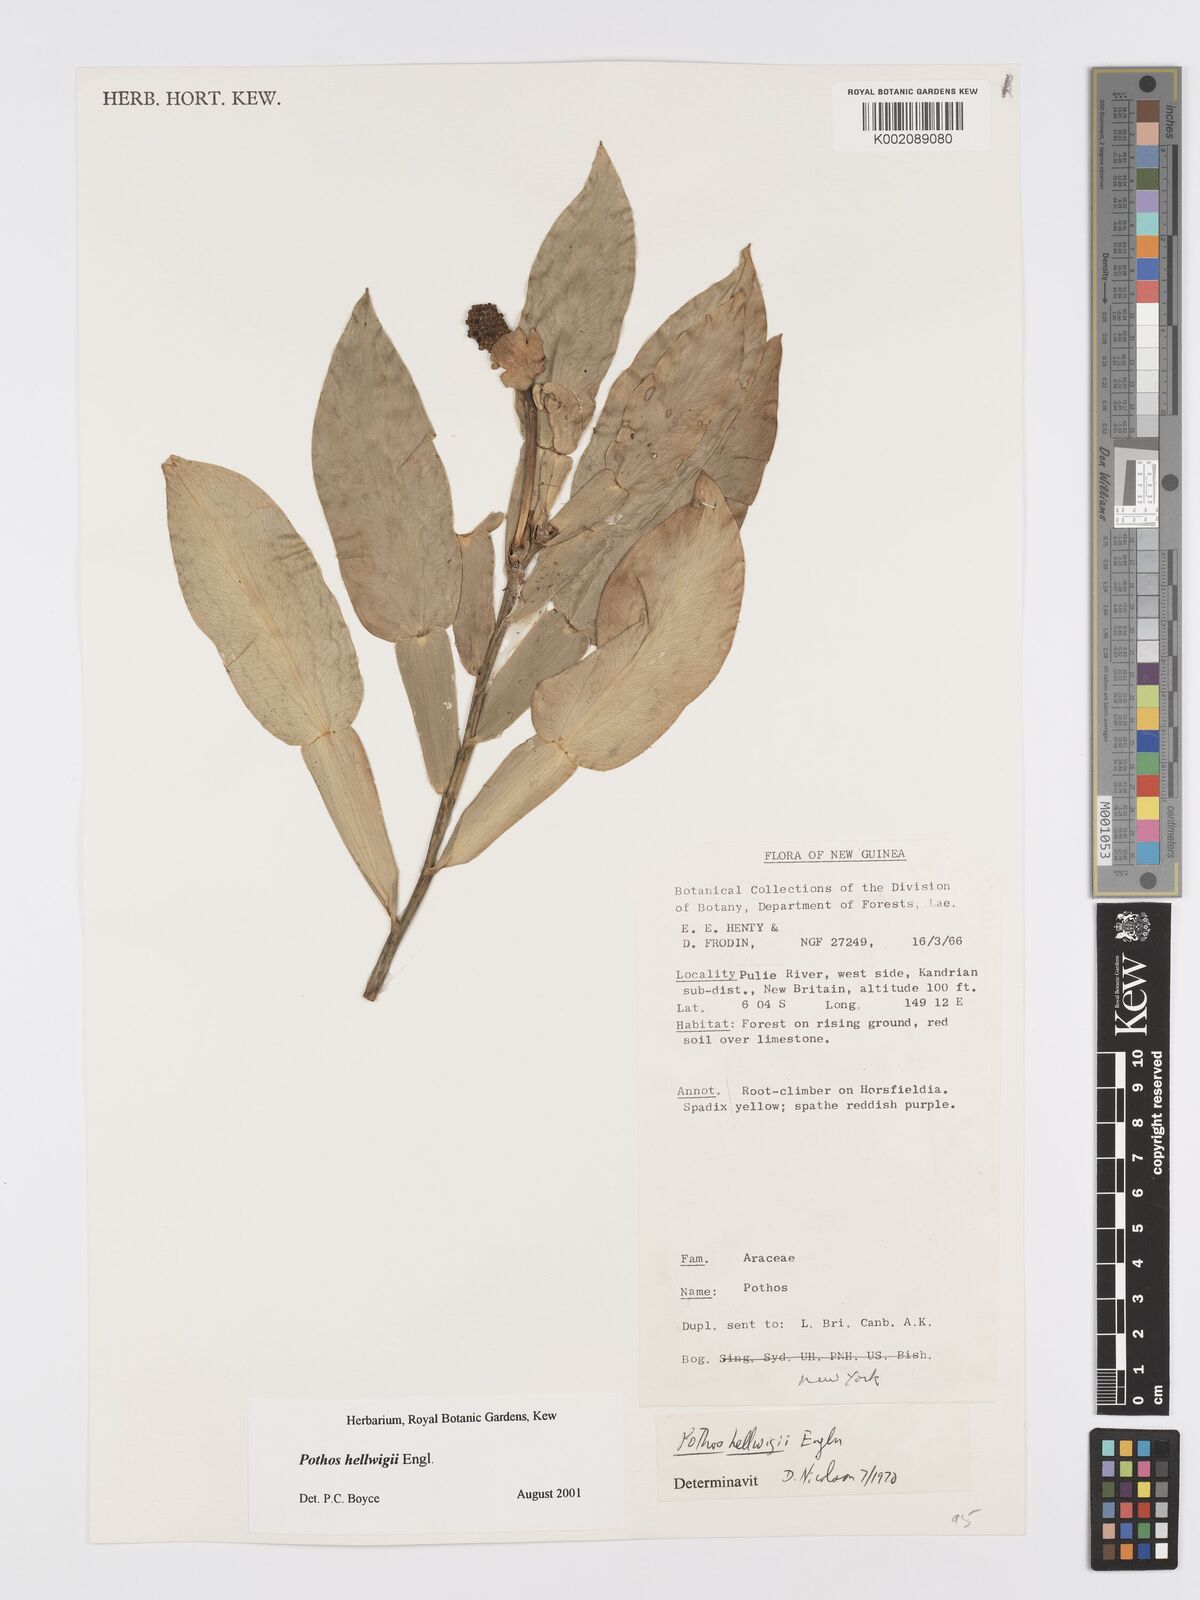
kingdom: Plantae
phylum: Tracheophyta
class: Liliopsida
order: Alismatales
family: Araceae
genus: Pothos
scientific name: Pothos hellwigii
